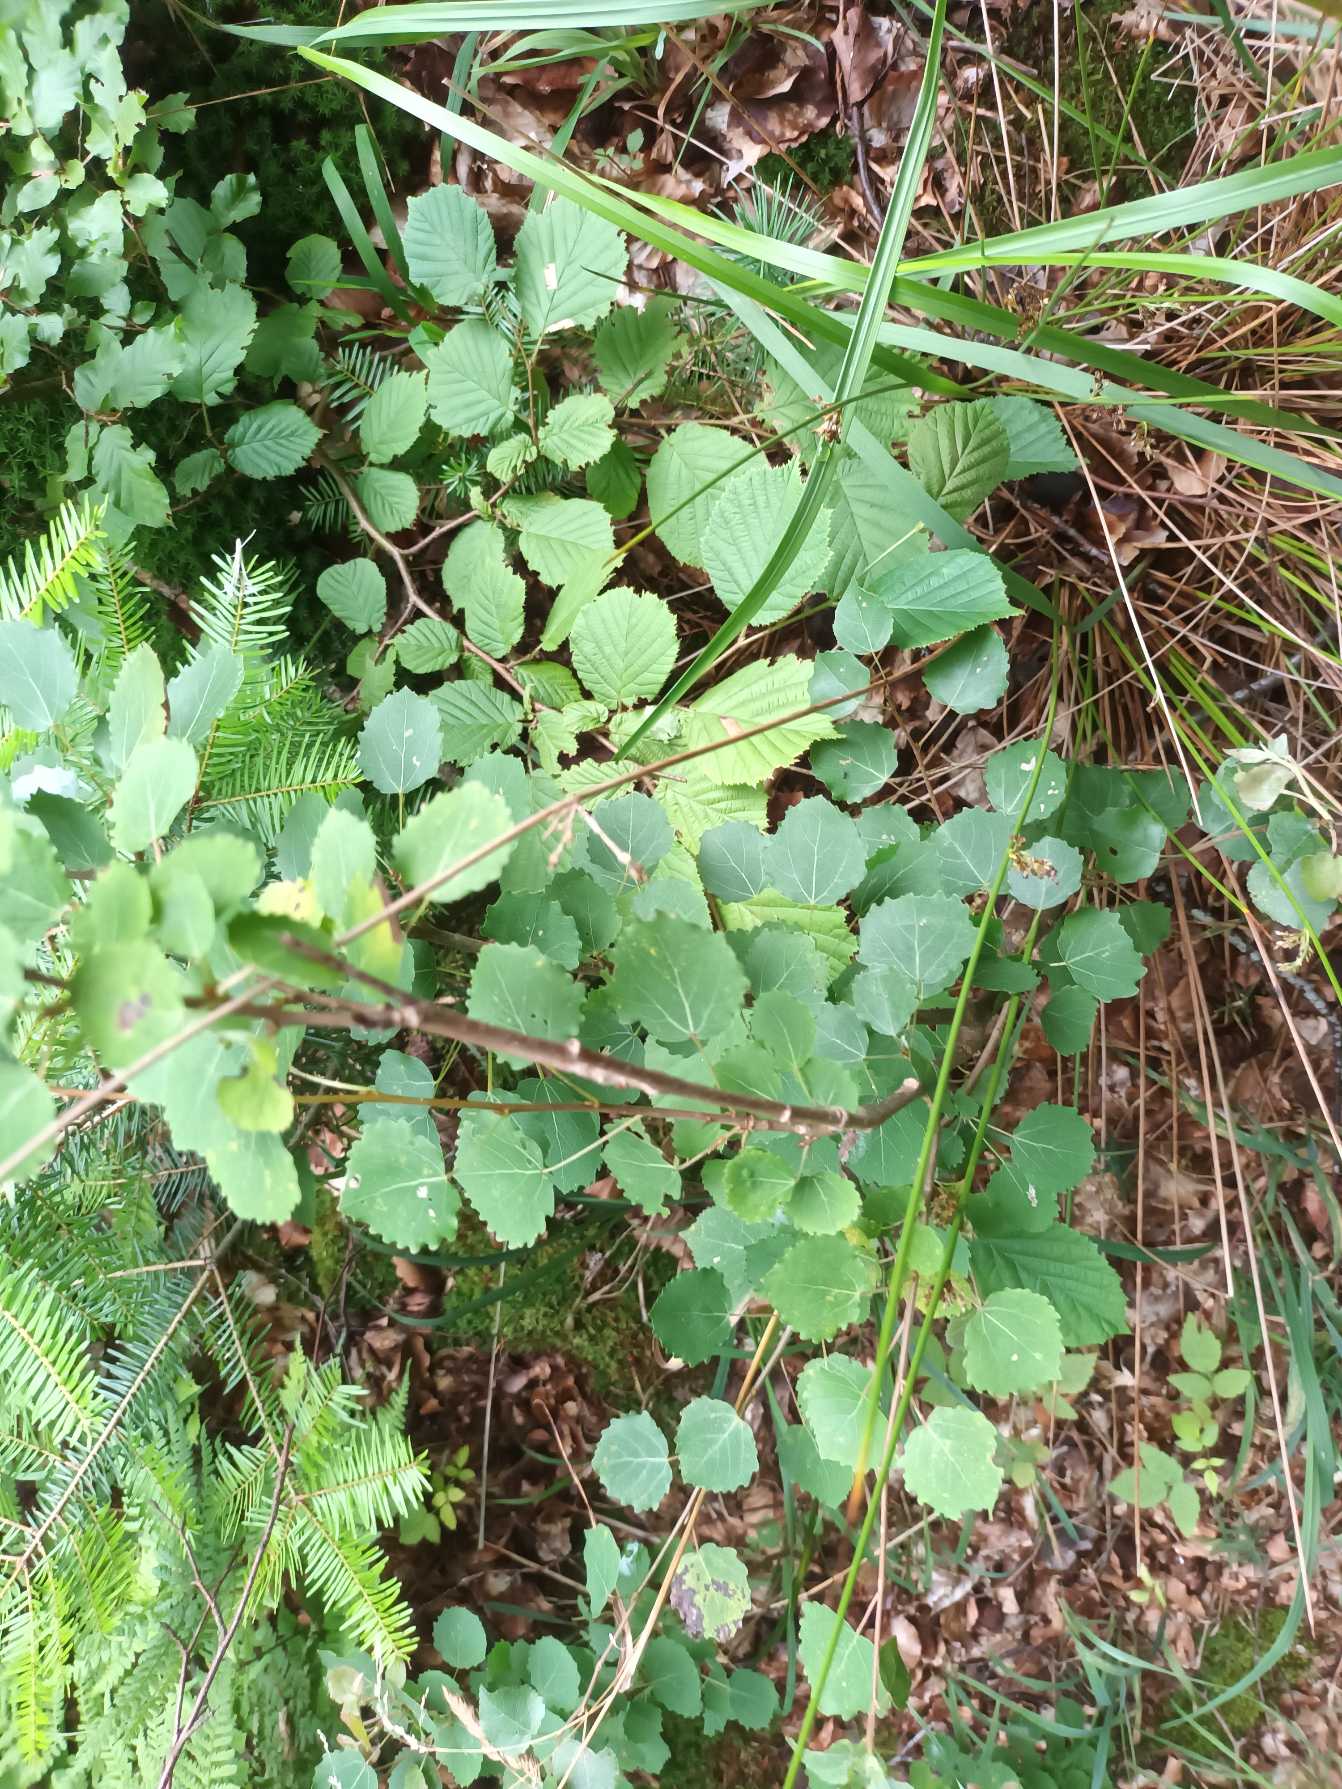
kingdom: Plantae
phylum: Tracheophyta
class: Magnoliopsida
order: Malpighiales
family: Salicaceae
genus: Populus
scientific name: Populus tremula
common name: Bævreasp
